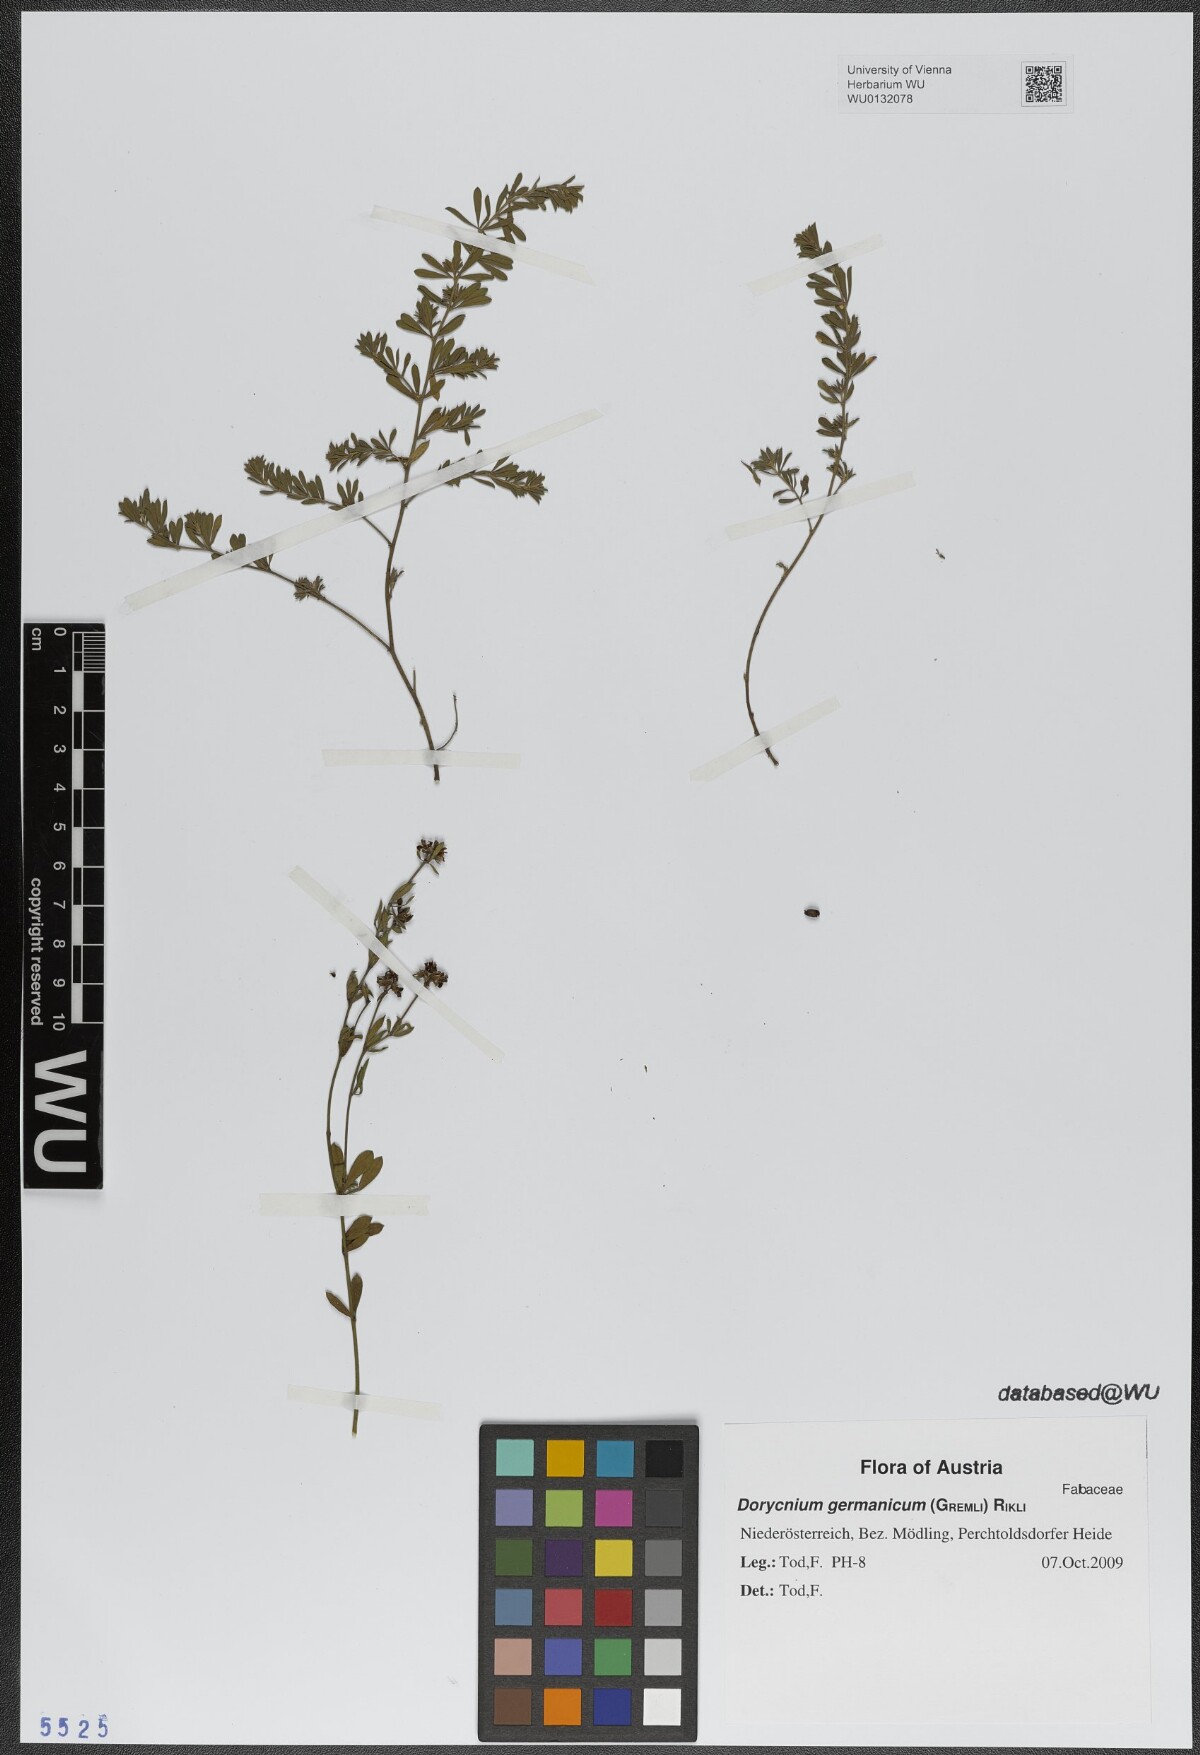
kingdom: Plantae
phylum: Tracheophyta
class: Magnoliopsida
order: Fabales
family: Fabaceae
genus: Lotus
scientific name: Lotus germanicus
